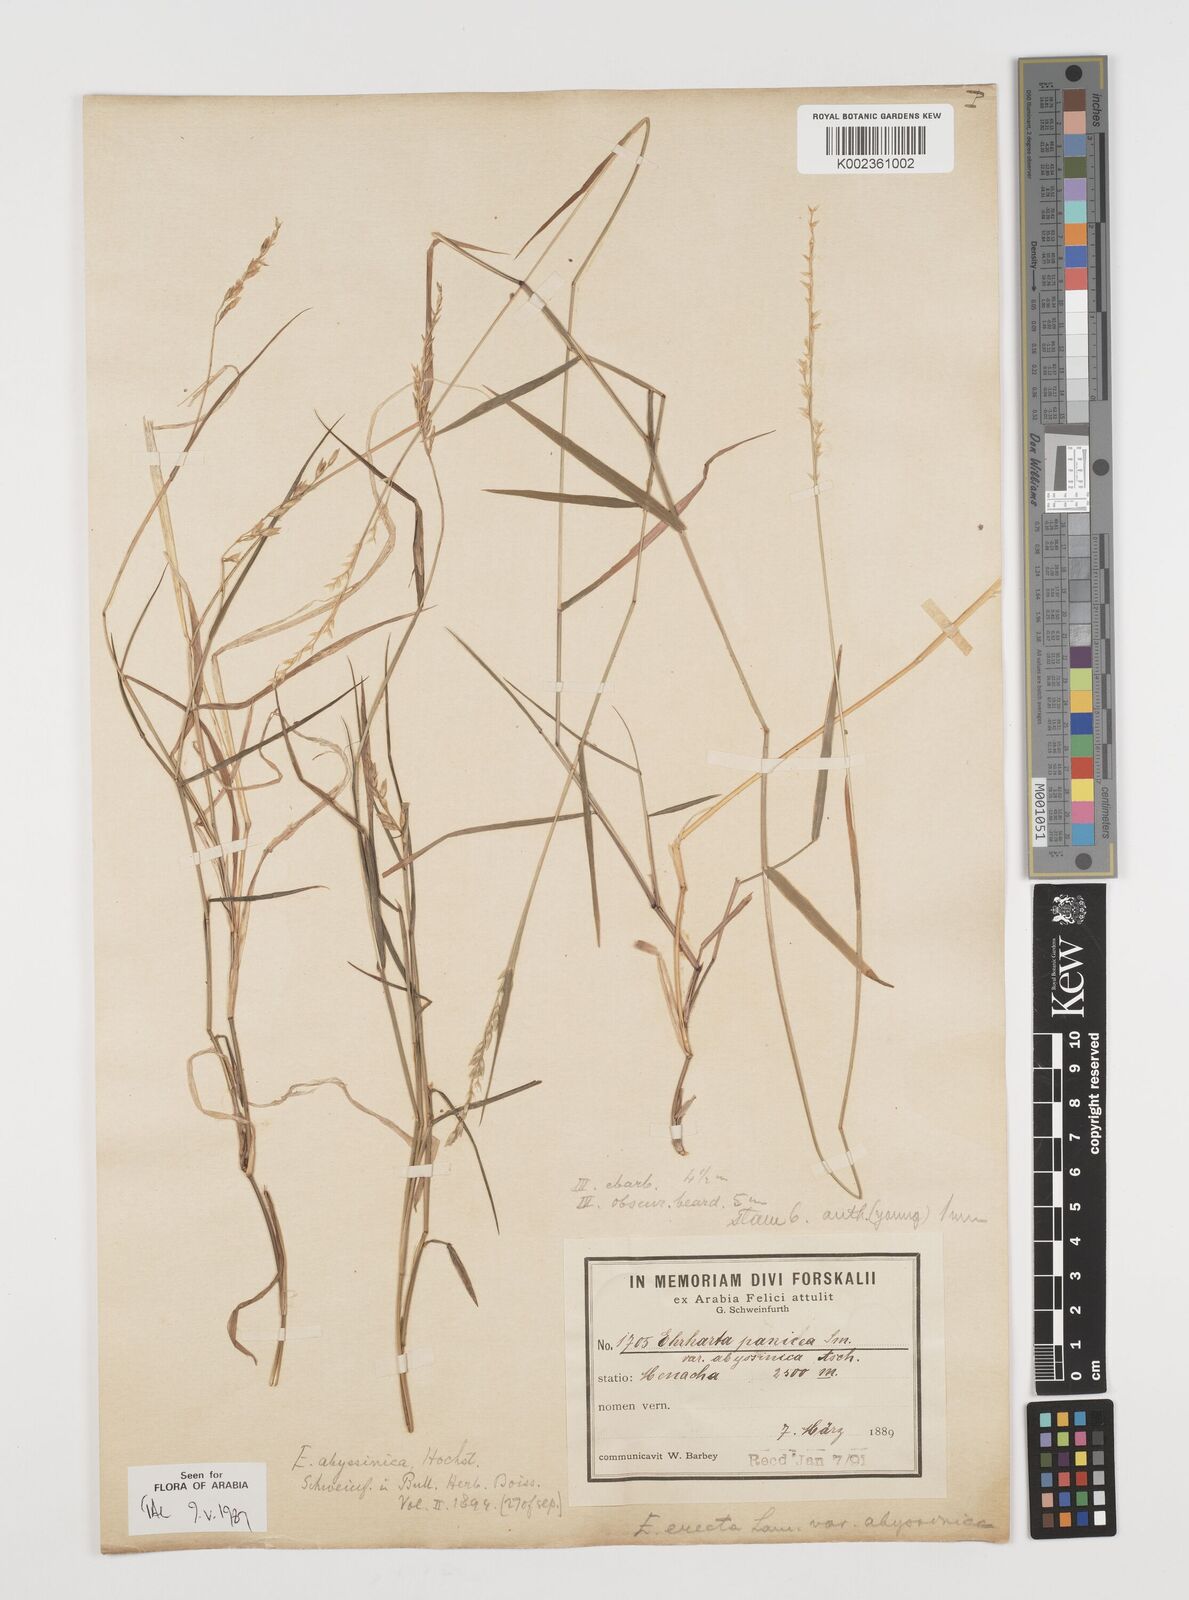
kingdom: Plantae
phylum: Tracheophyta
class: Liliopsida
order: Poales
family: Poaceae
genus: Ehrharta
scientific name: Ehrharta erecta
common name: Panic veldtgrass
